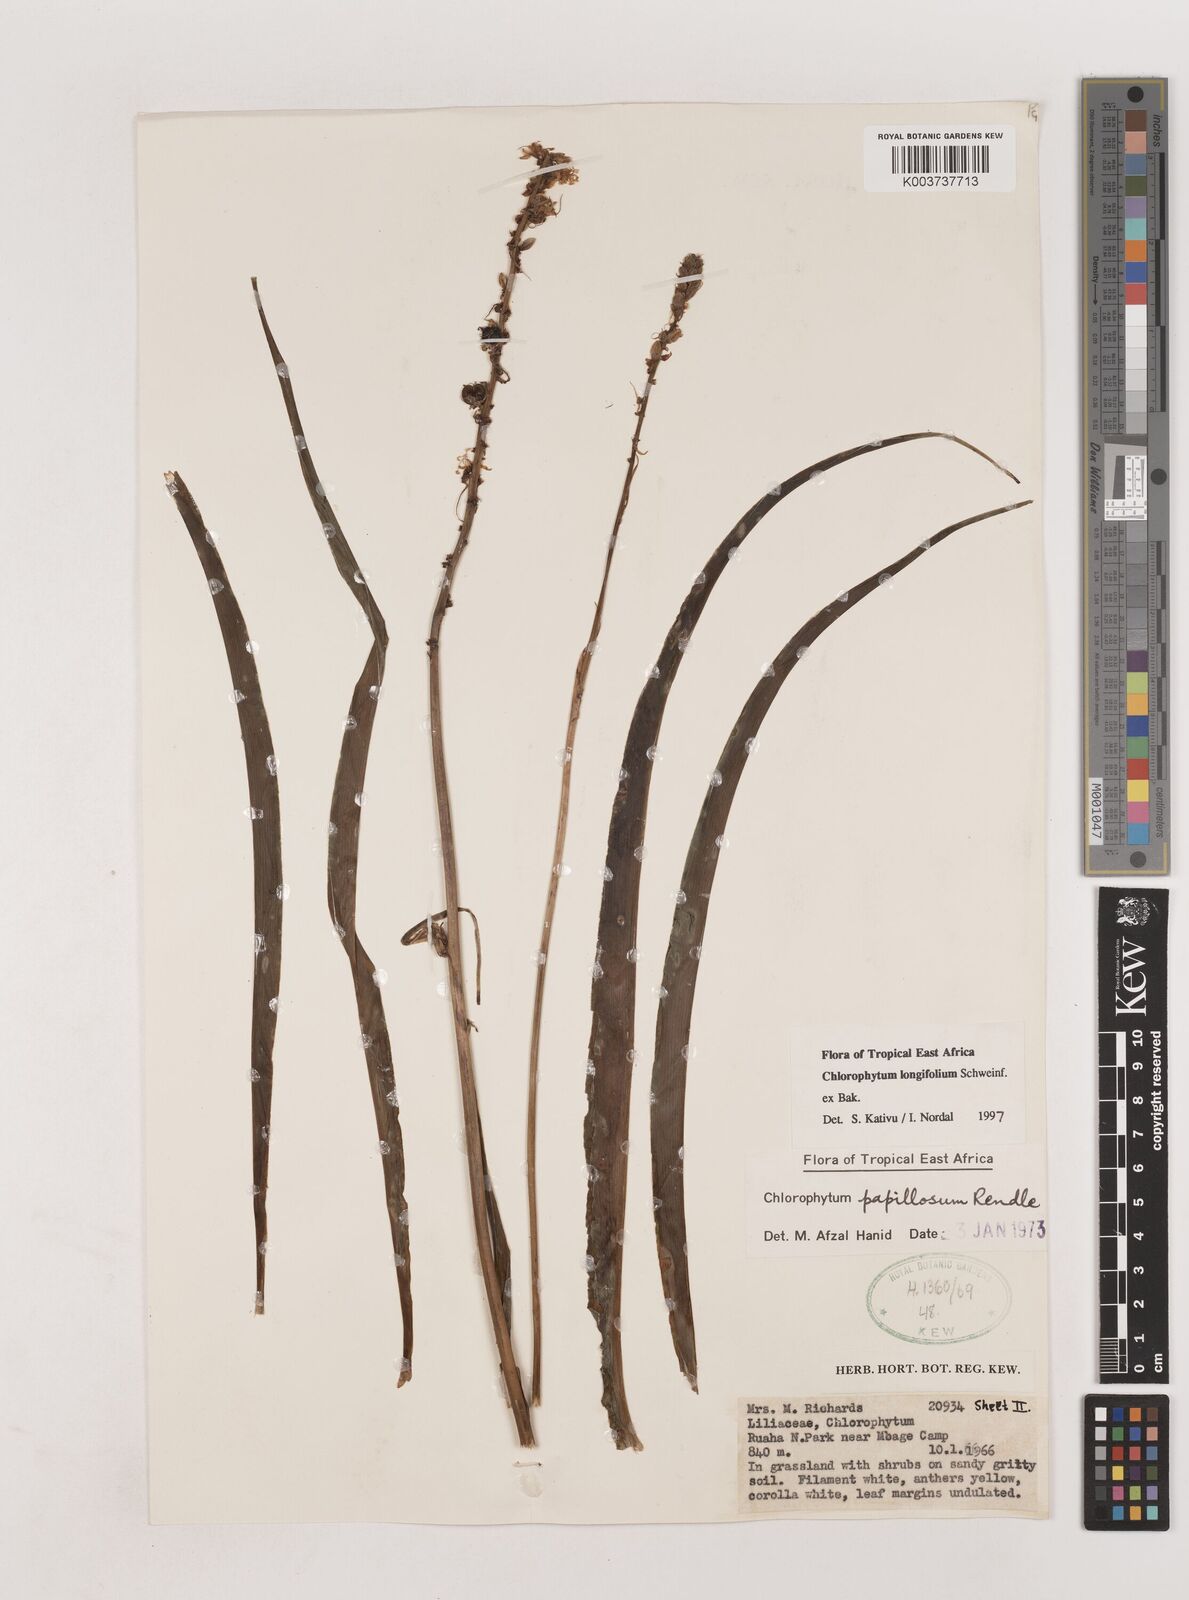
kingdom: Plantae
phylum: Tracheophyta
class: Liliopsida
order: Asparagales
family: Asparagaceae
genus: Chlorophytum
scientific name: Chlorophytum longifolium
